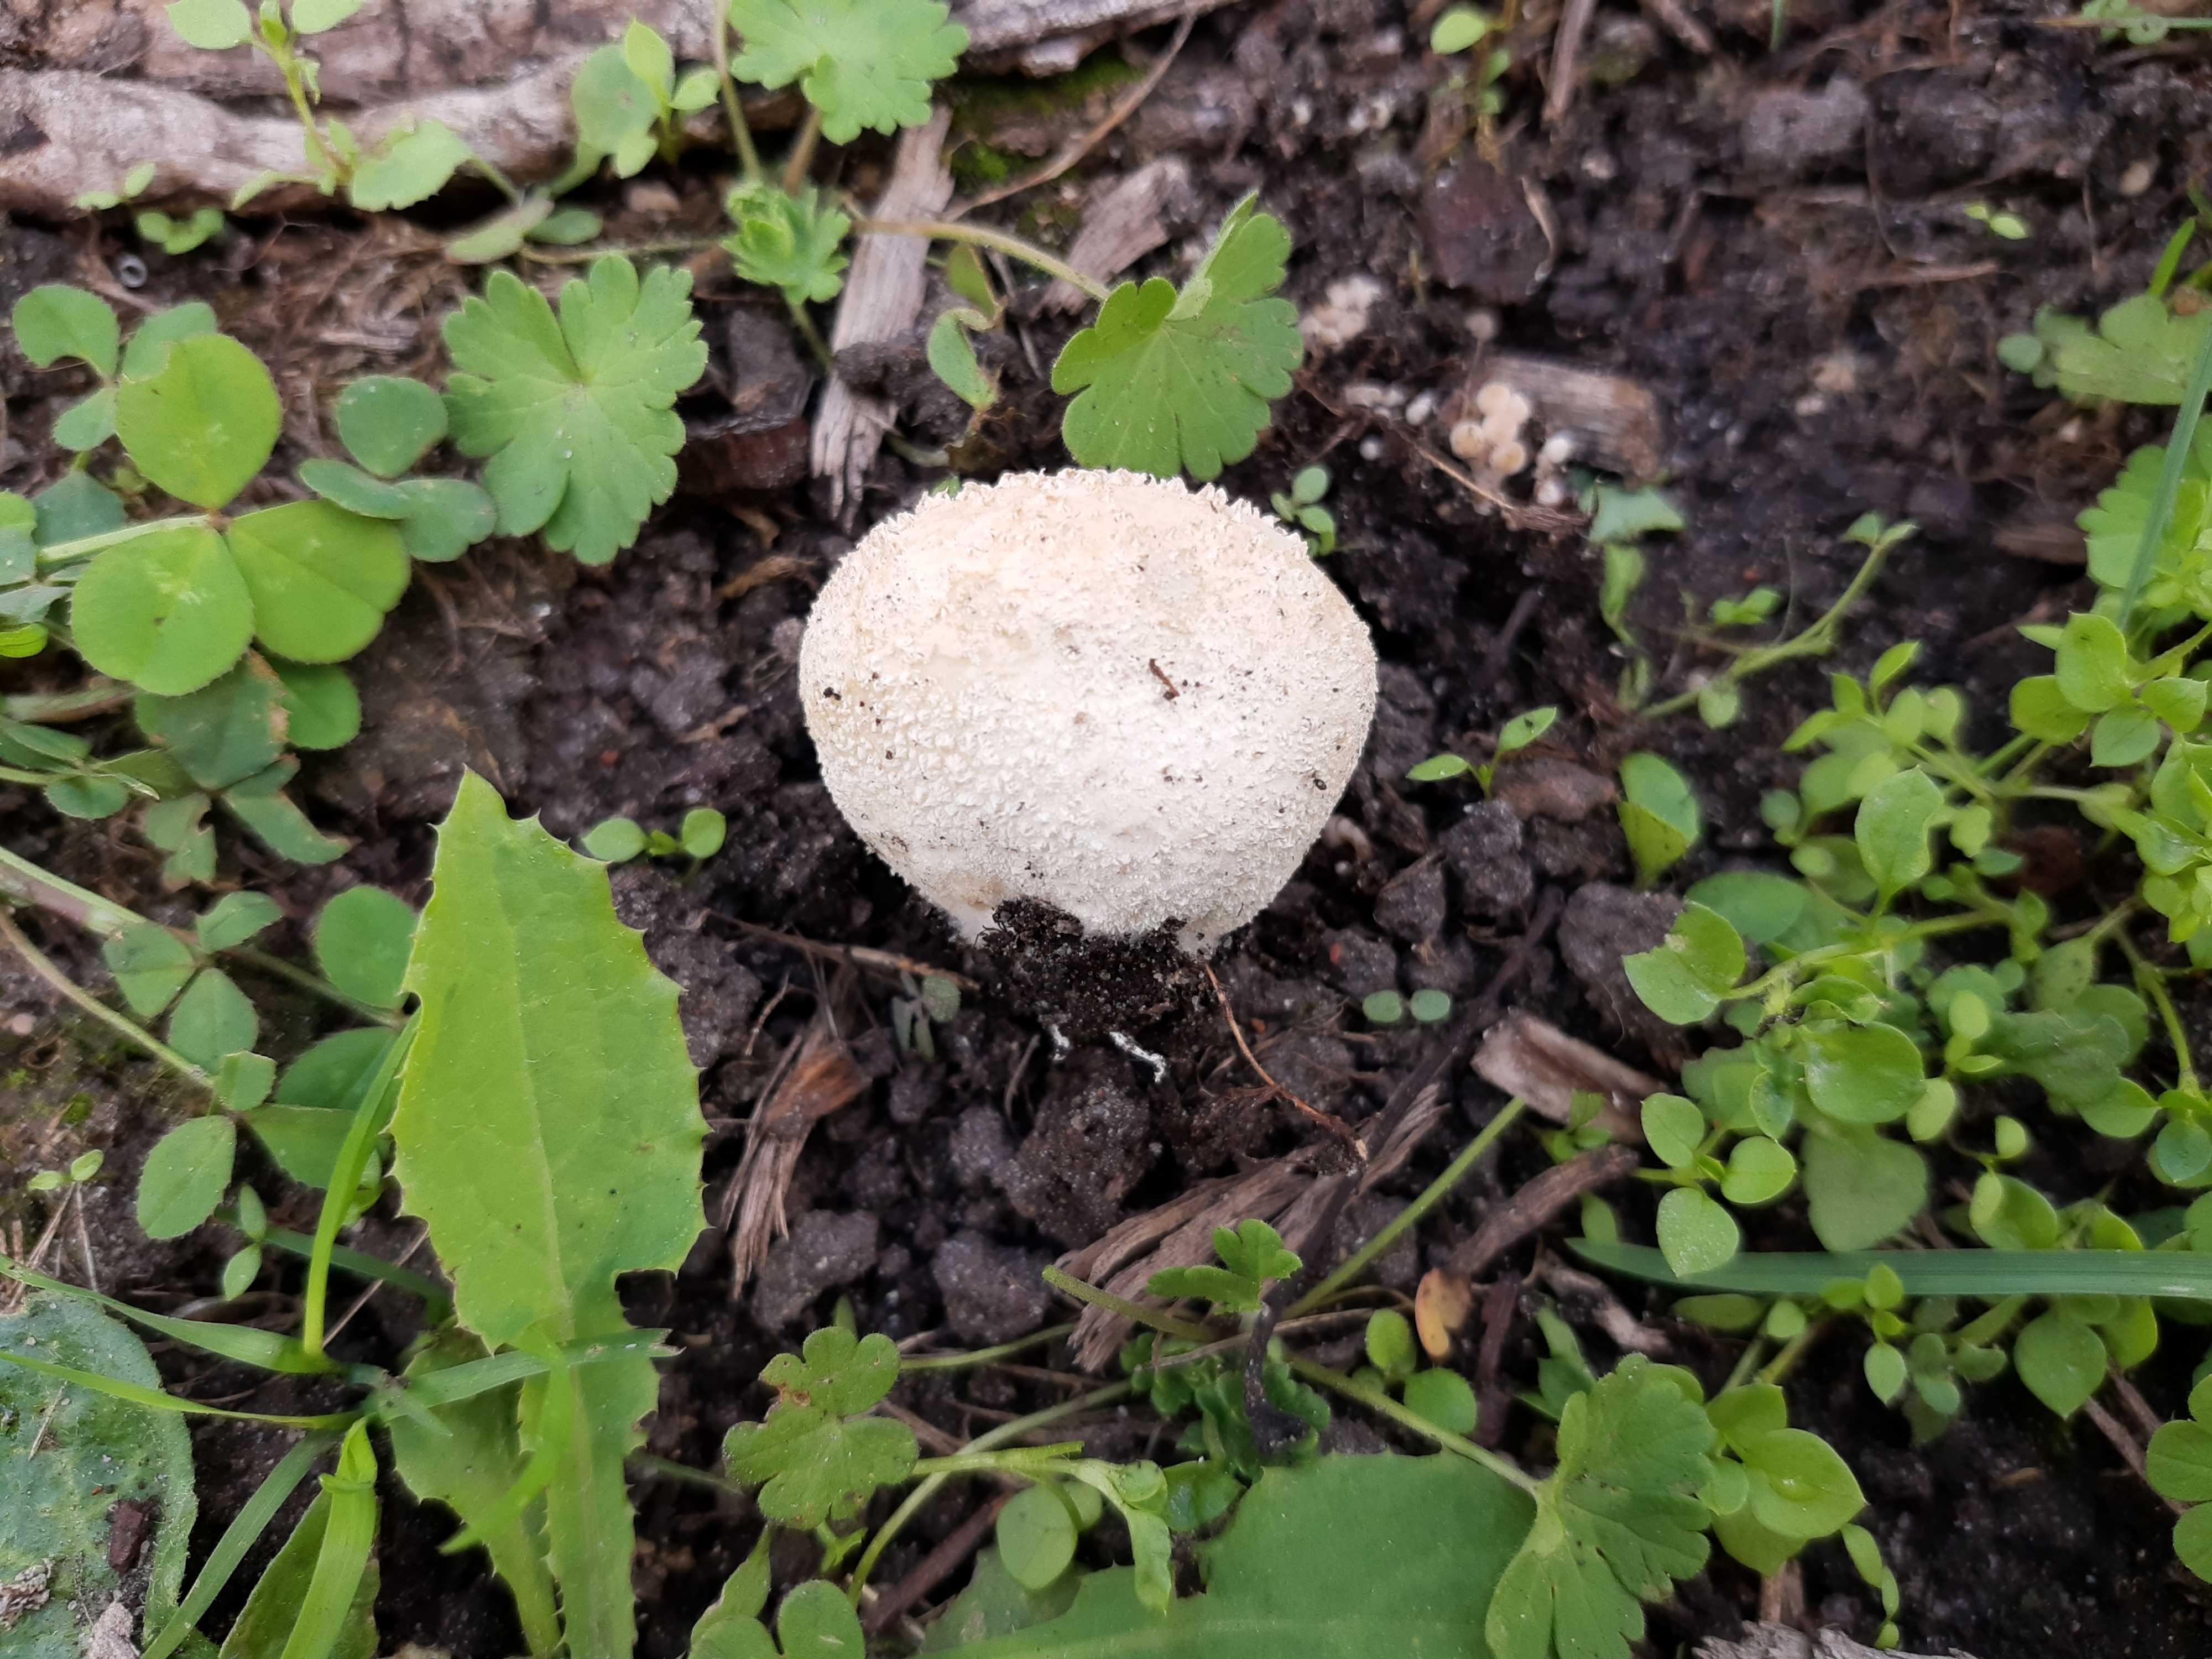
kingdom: Fungi
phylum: Basidiomycota
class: Agaricomycetes
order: Agaricales
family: Lycoperdaceae
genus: Lycoperdon
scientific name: Lycoperdon pratense
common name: flad støvbold
